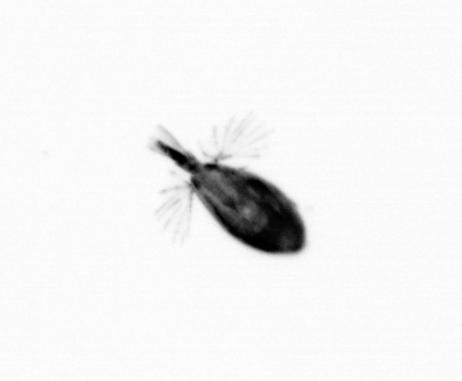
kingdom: Animalia
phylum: Arthropoda
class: Maxillopoda
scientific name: Maxillopoda
